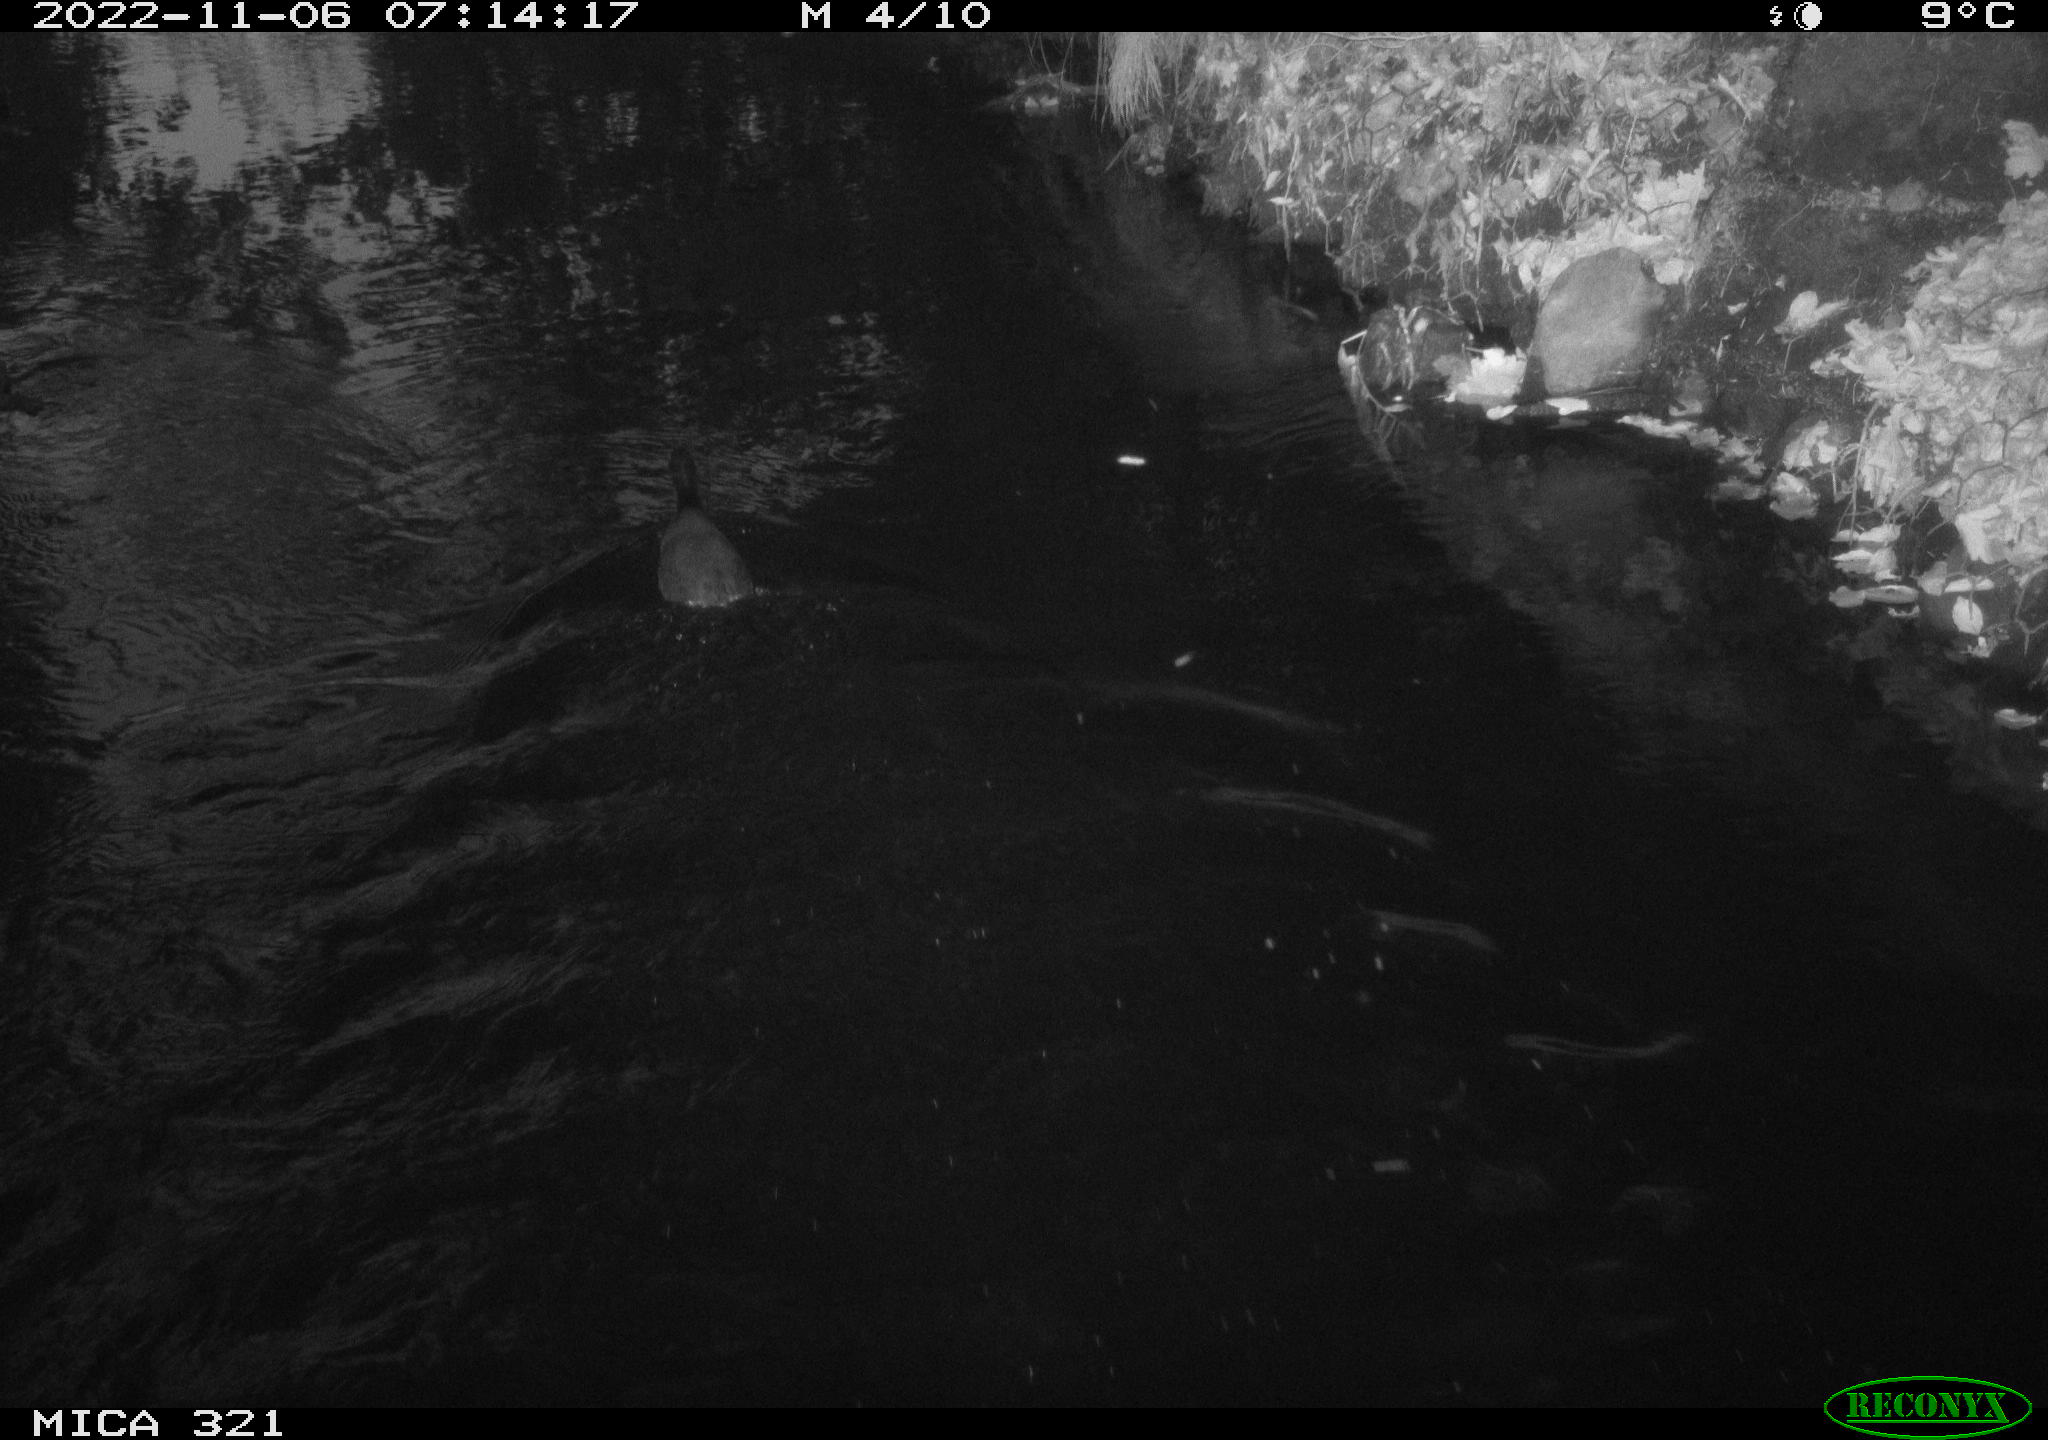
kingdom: Animalia
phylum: Chordata
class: Aves
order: Anseriformes
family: Anatidae
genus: Anas
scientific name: Anas
